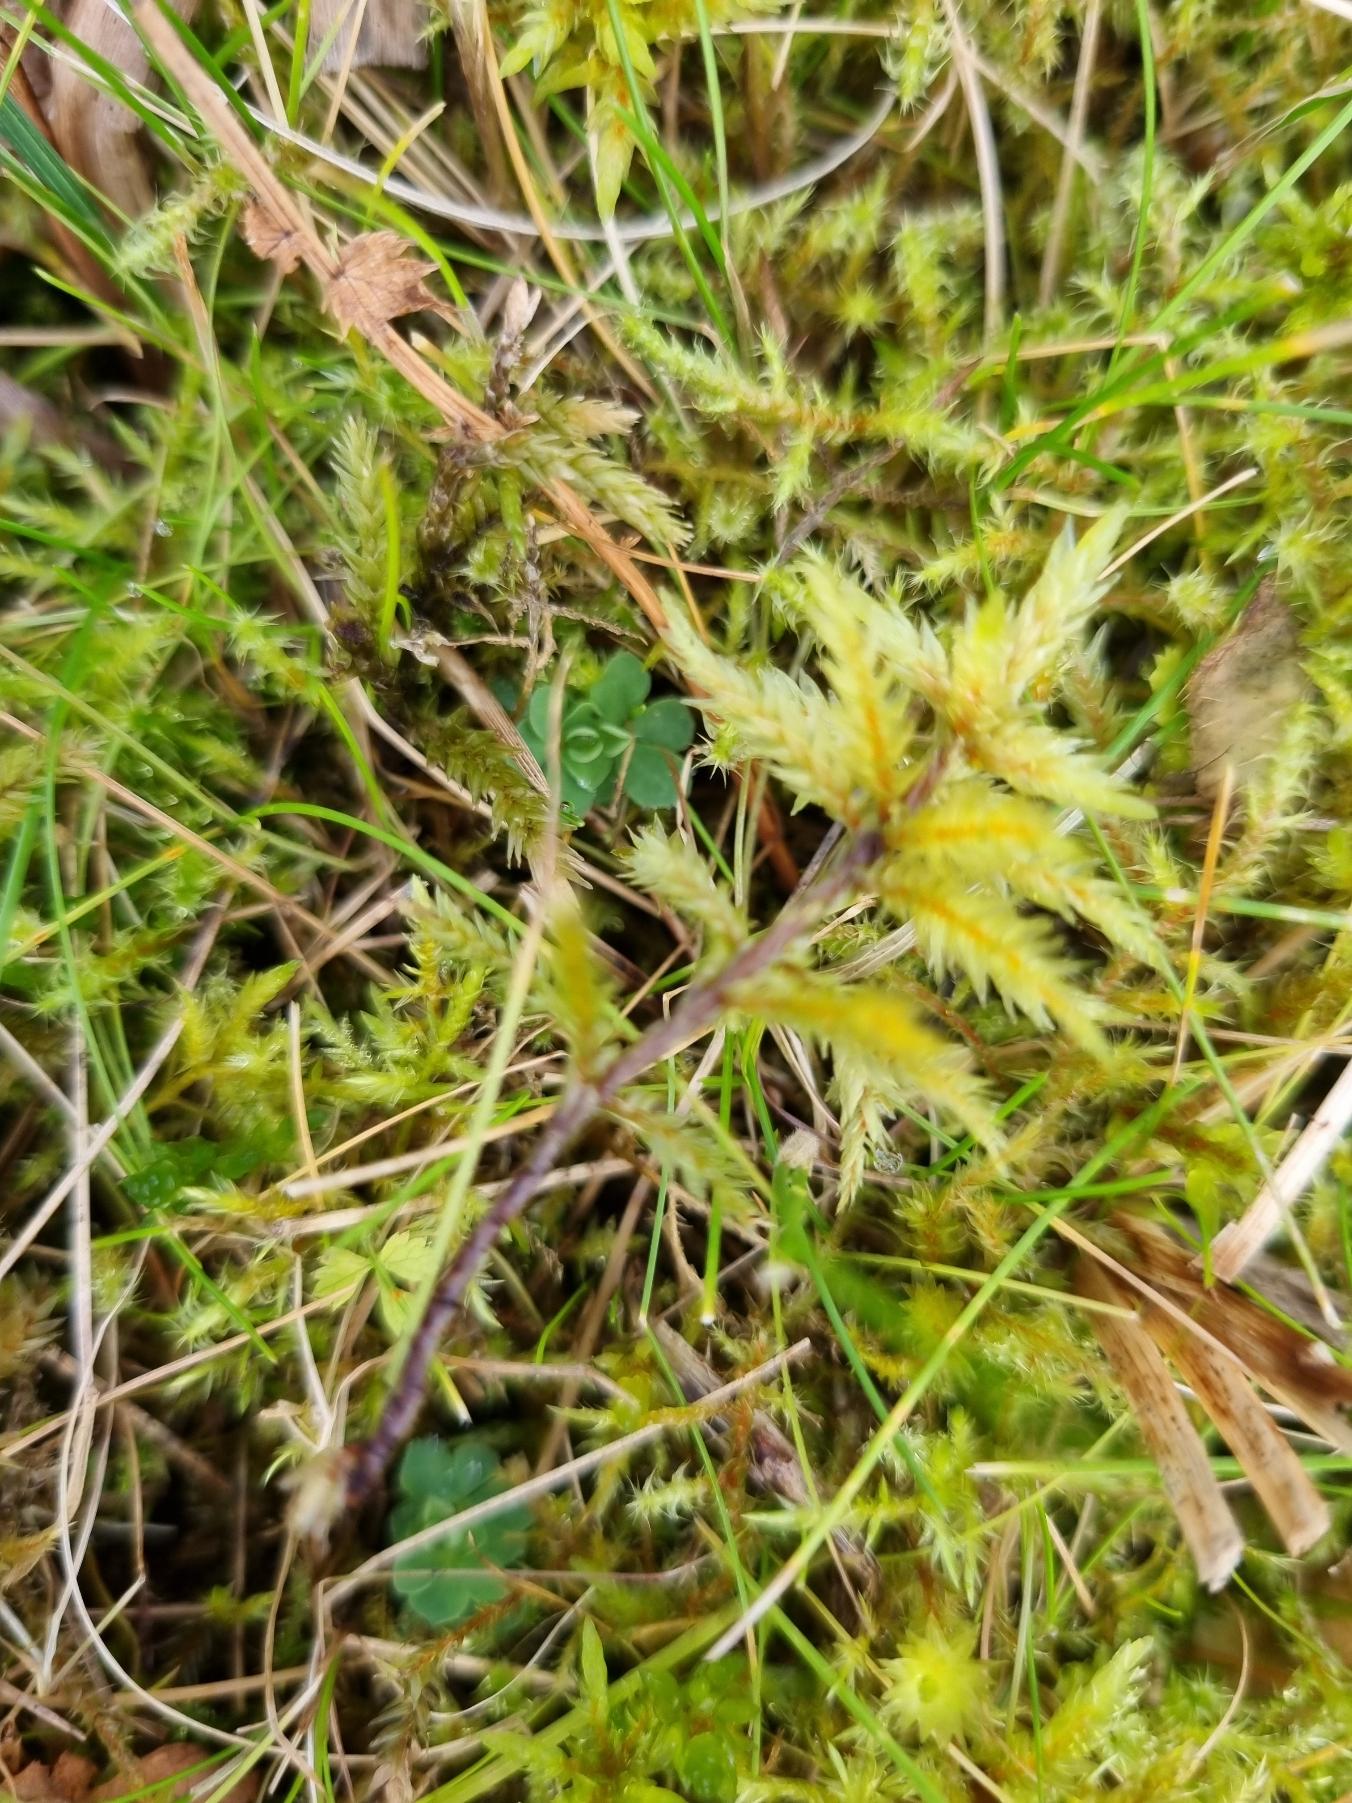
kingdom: Plantae
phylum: Bryophyta
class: Bryopsida
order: Hypnales
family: Climaciaceae
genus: Climacium
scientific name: Climacium dendroides
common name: Stor engkost
